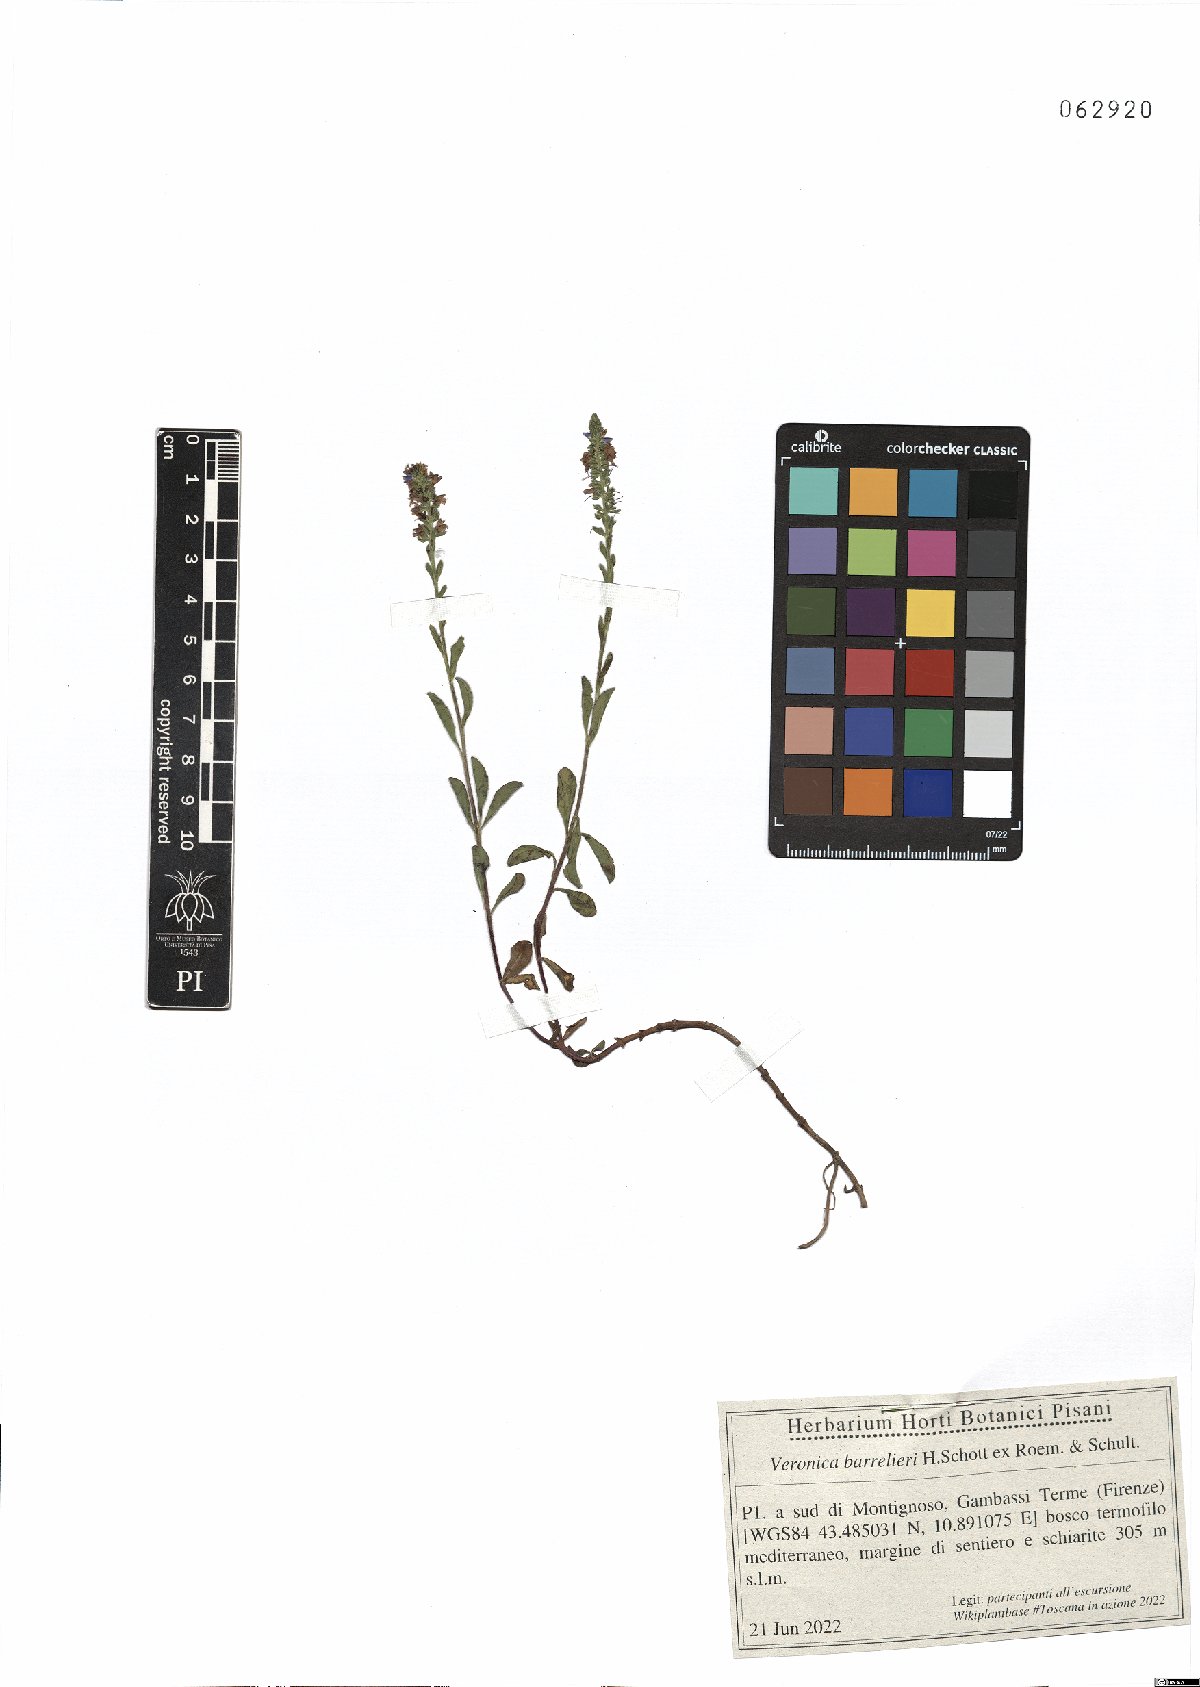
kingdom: Plantae
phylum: Tracheophyta
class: Magnoliopsida
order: Lamiales
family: Plantaginaceae
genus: Veronica
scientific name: Veronica barrelieri
